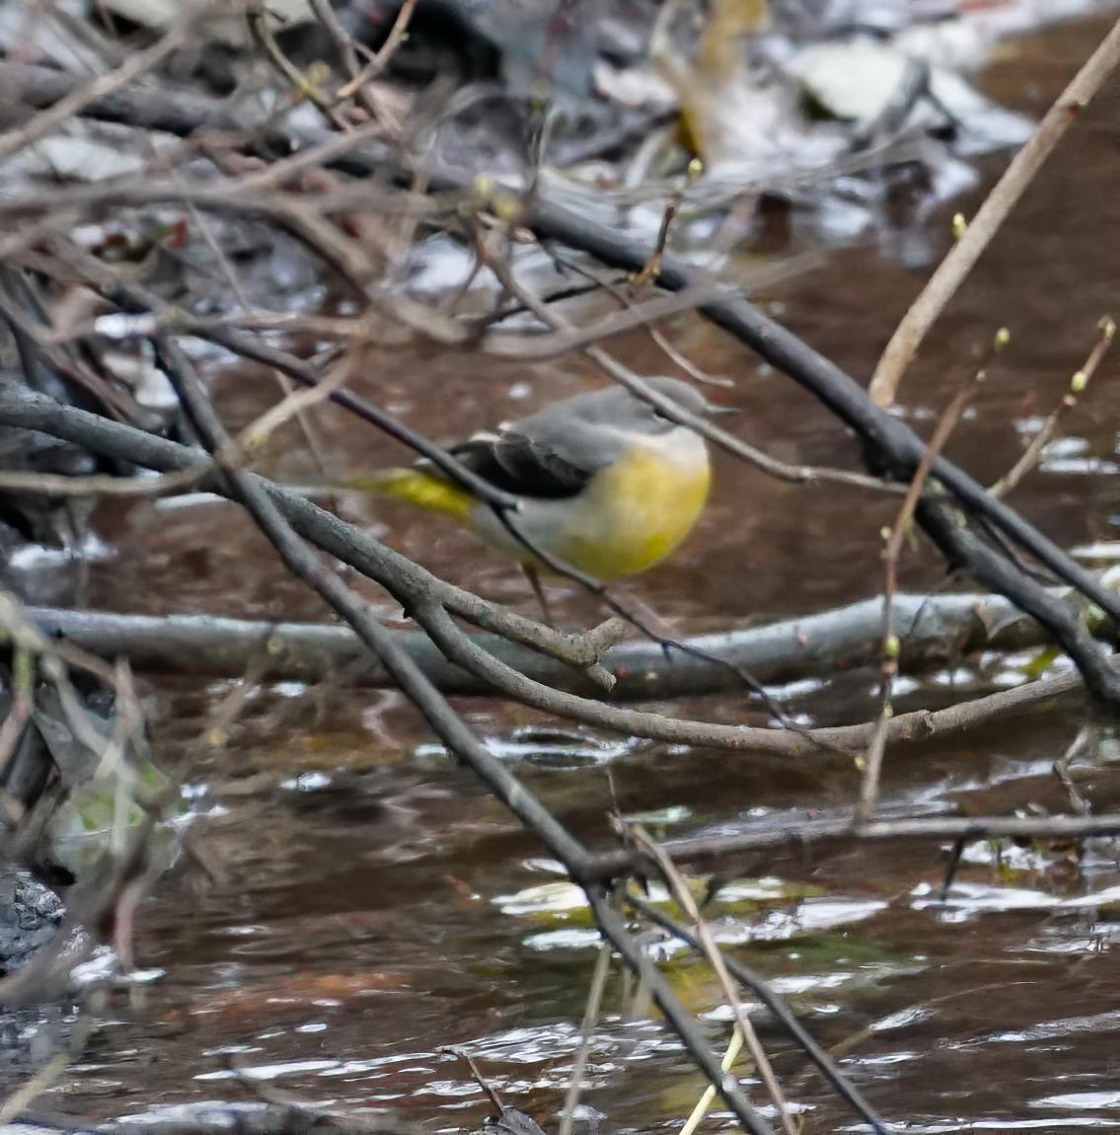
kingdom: Animalia
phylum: Chordata
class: Aves
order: Passeriformes
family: Motacillidae
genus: Motacilla
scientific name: Motacilla cinerea
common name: Bjergvipstjert
